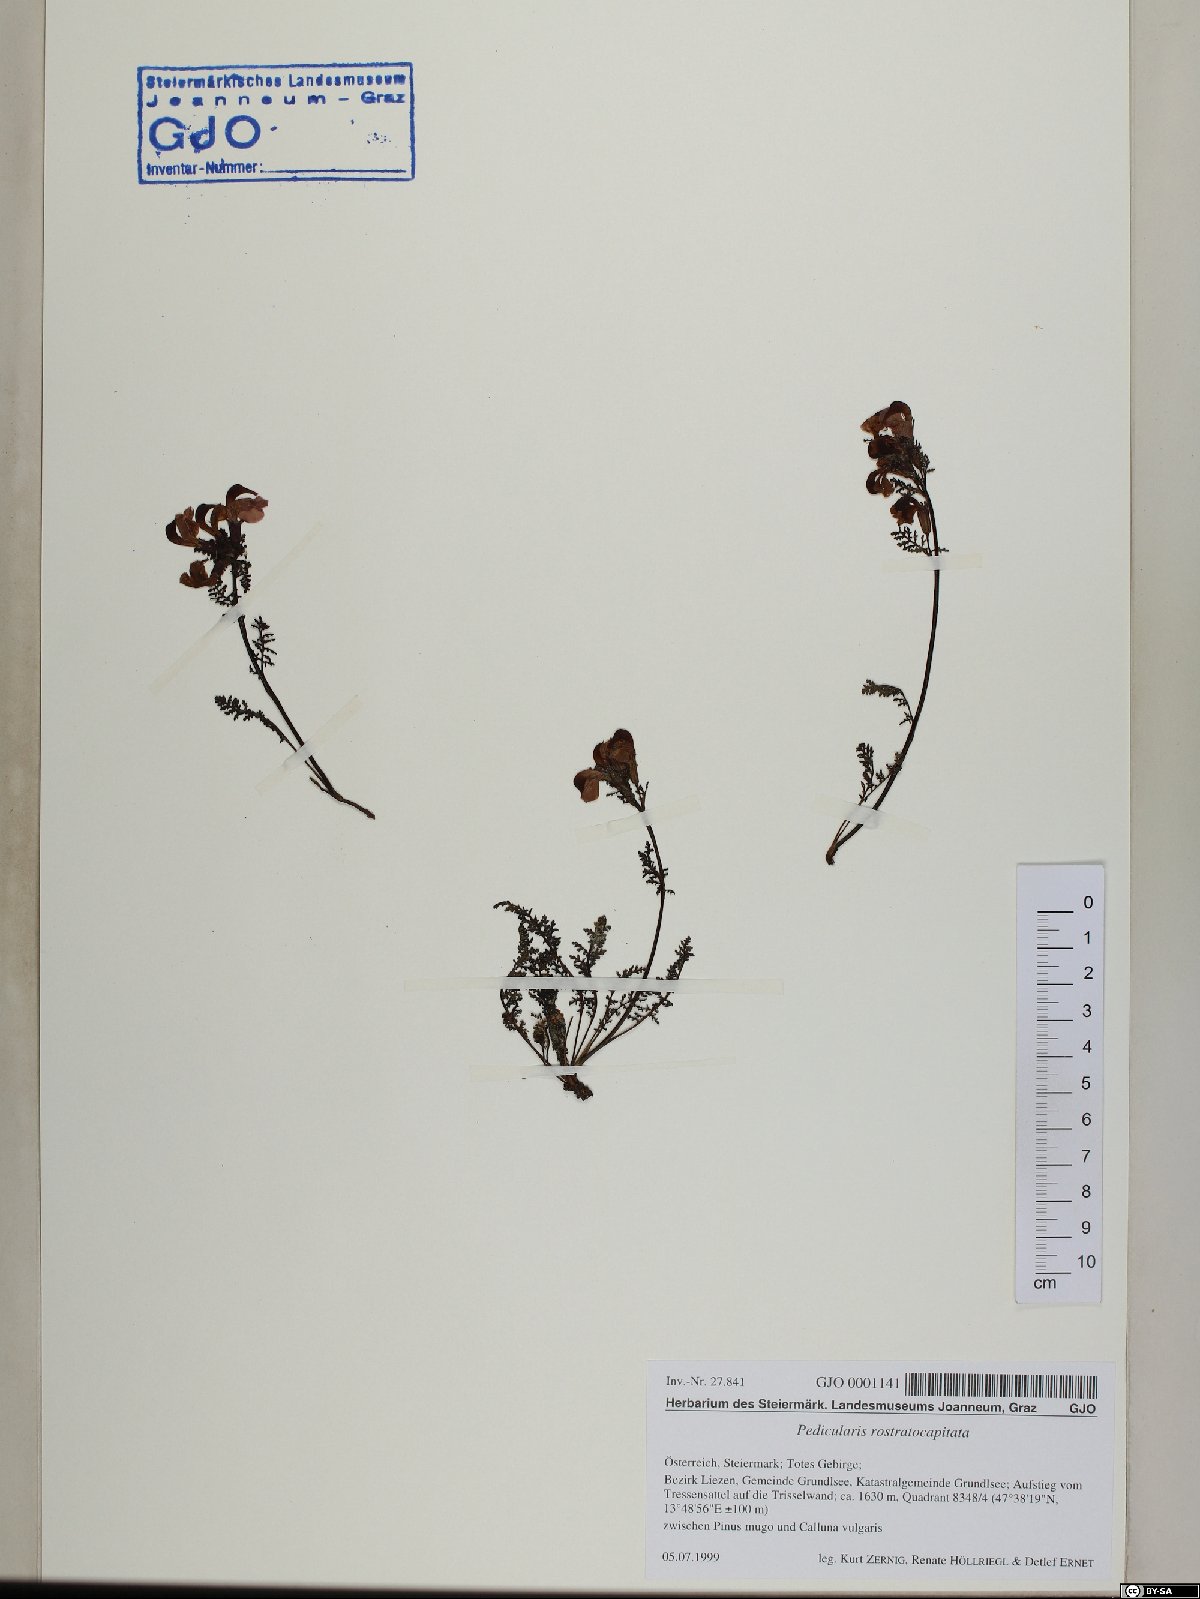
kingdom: Plantae
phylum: Tracheophyta
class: Magnoliopsida
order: Lamiales
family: Orobanchaceae
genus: Pedicularis
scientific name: Pedicularis rostratocapitata
